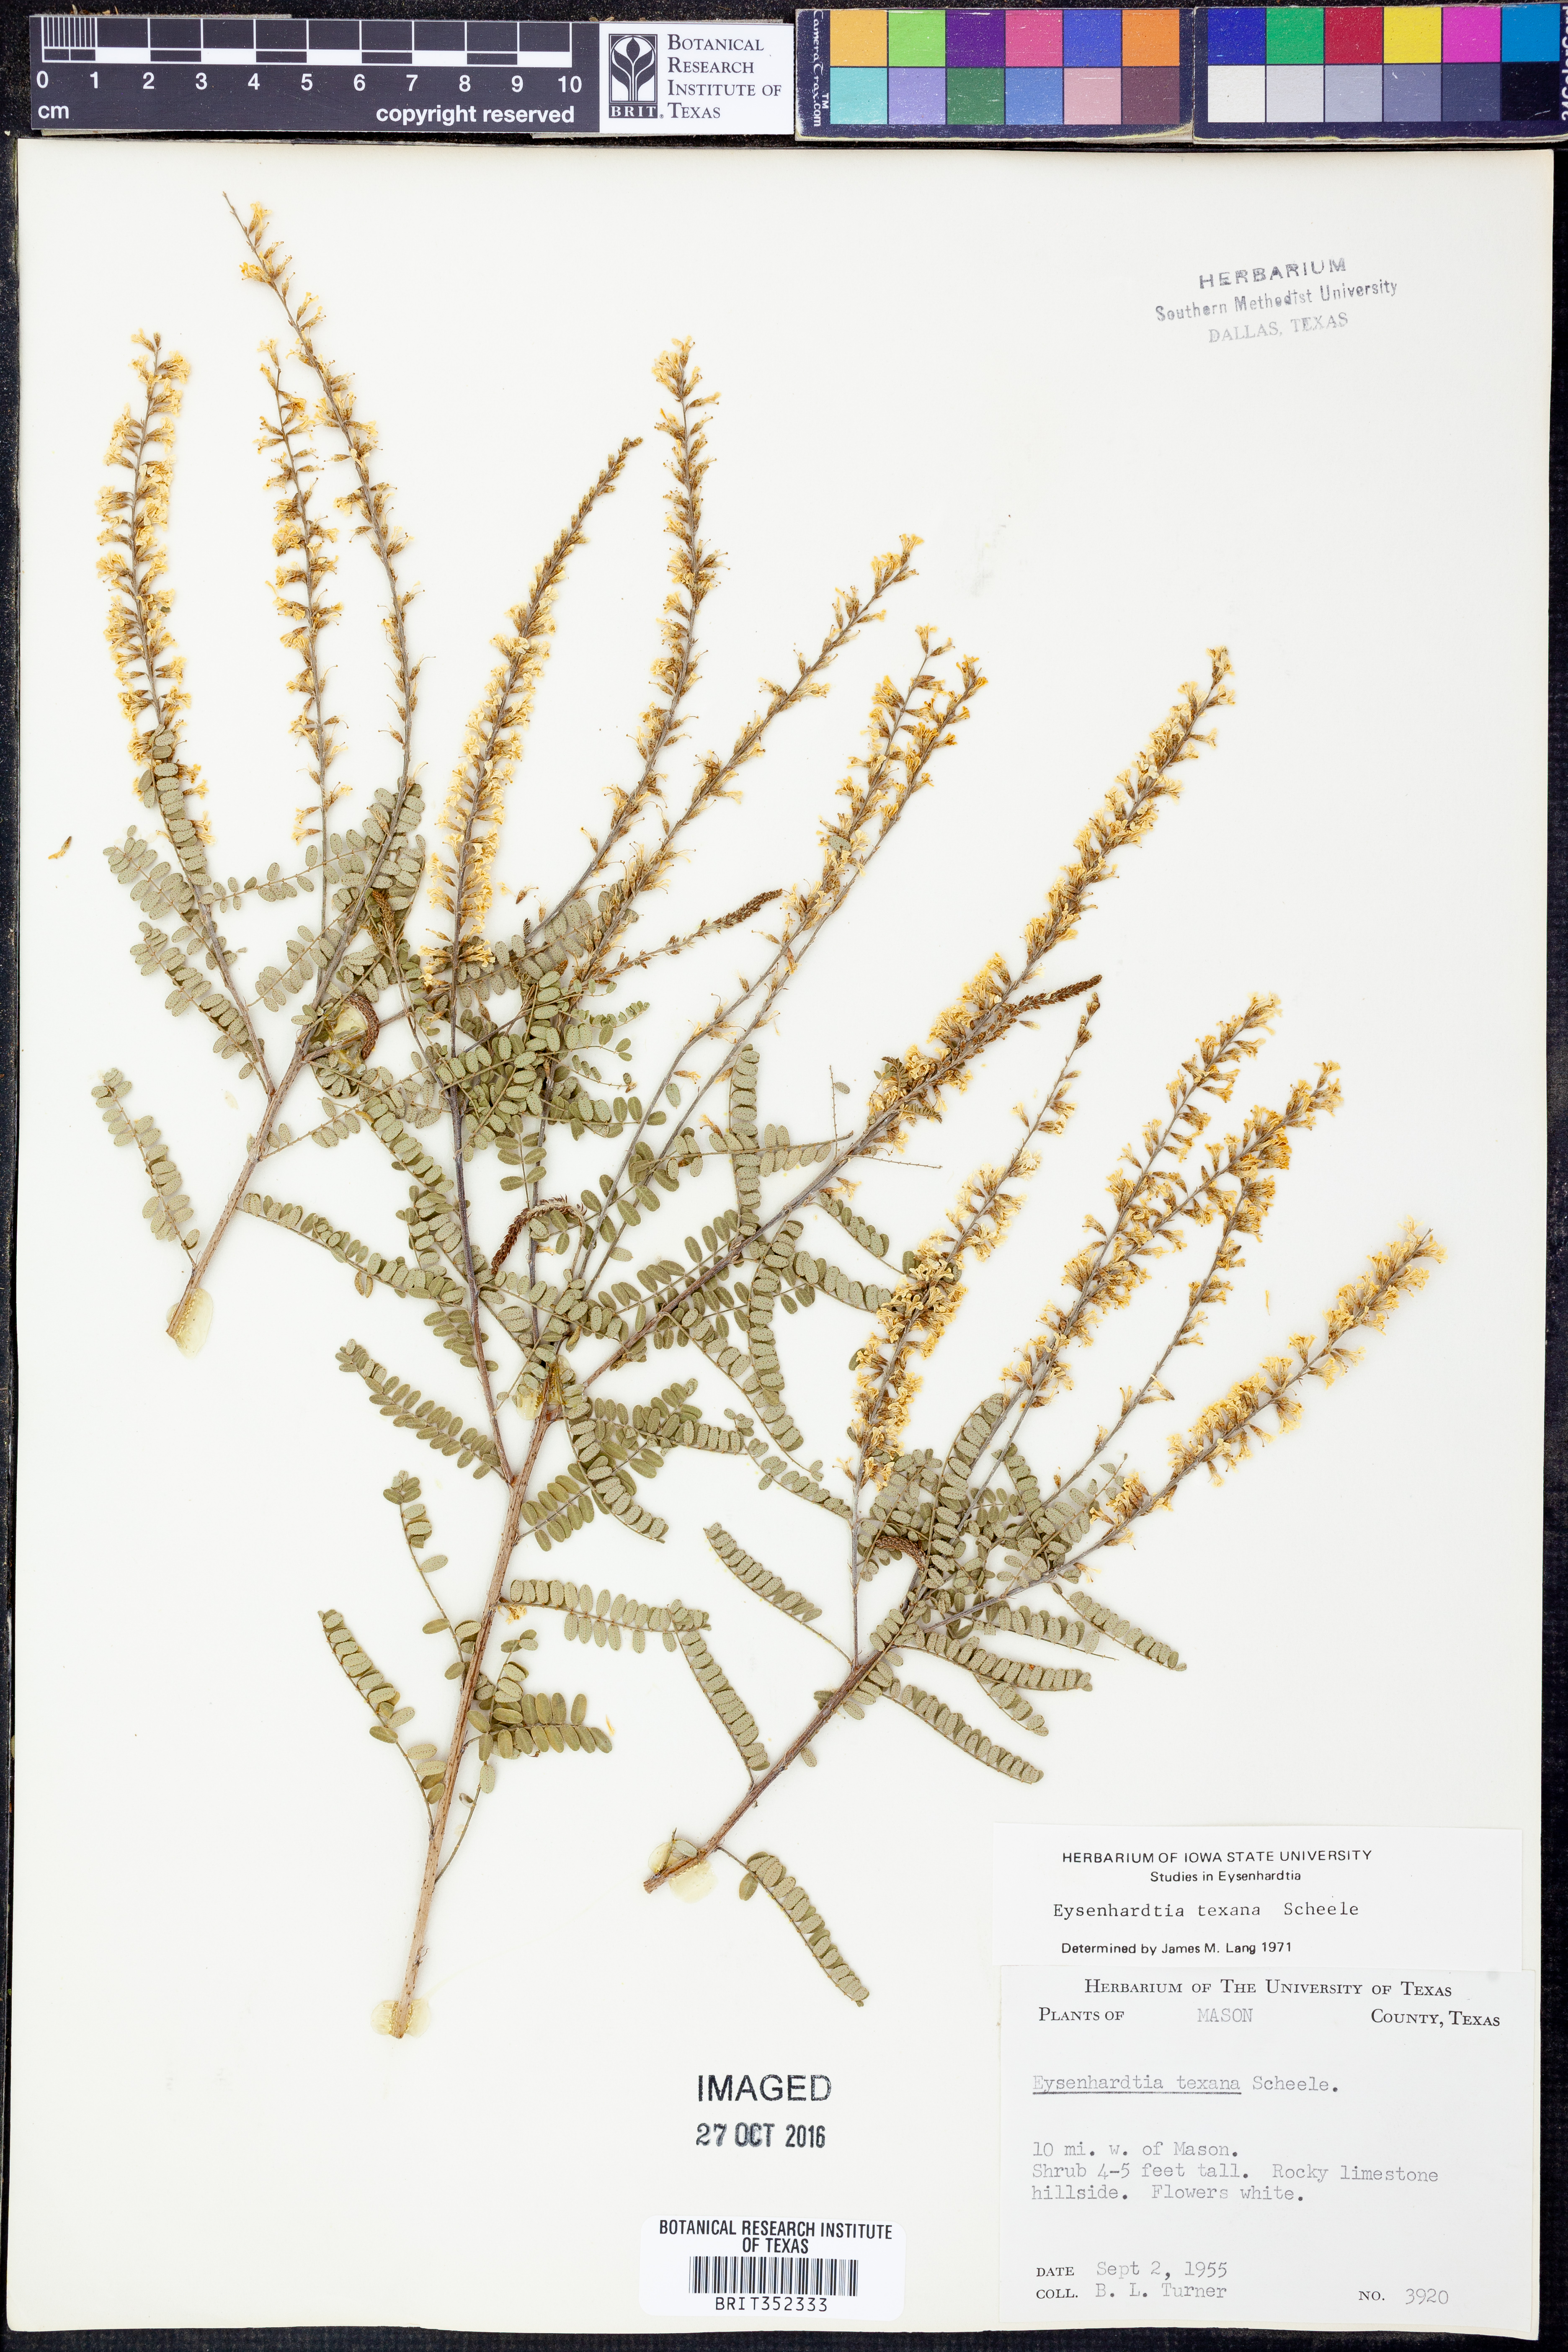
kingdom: Plantae
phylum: Tracheophyta
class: Magnoliopsida
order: Fabales
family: Fabaceae
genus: Eysenhardtia
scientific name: Eysenhardtia texana
